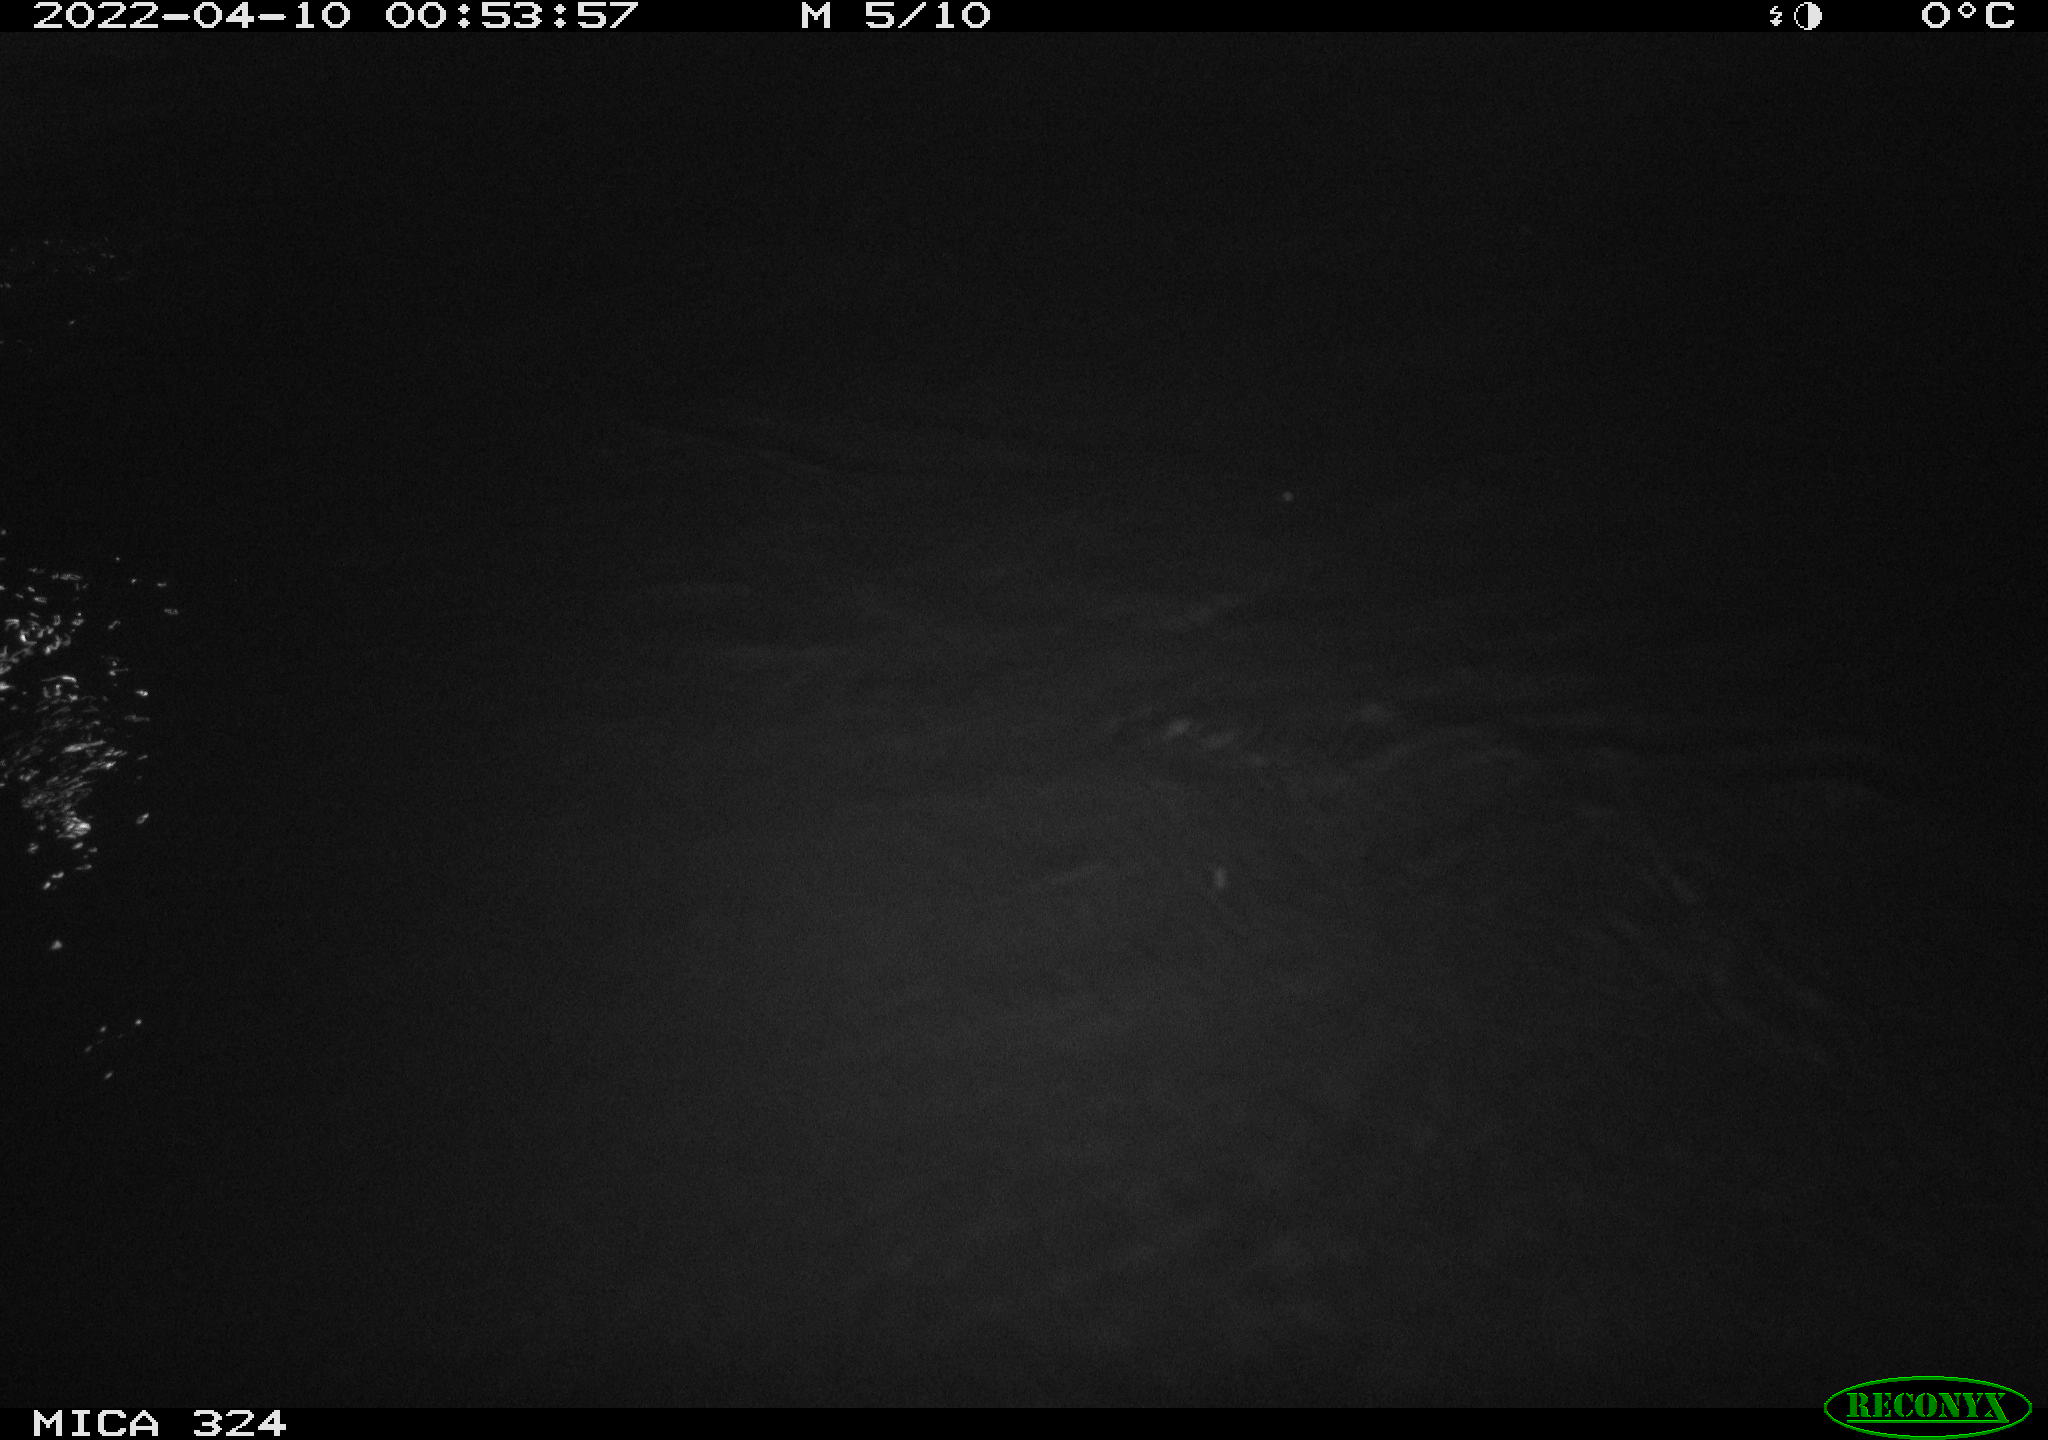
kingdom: Animalia
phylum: Chordata
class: Mammalia
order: Rodentia
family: Cricetidae
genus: Ondatra
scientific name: Ondatra zibethicus
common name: Muskrat
